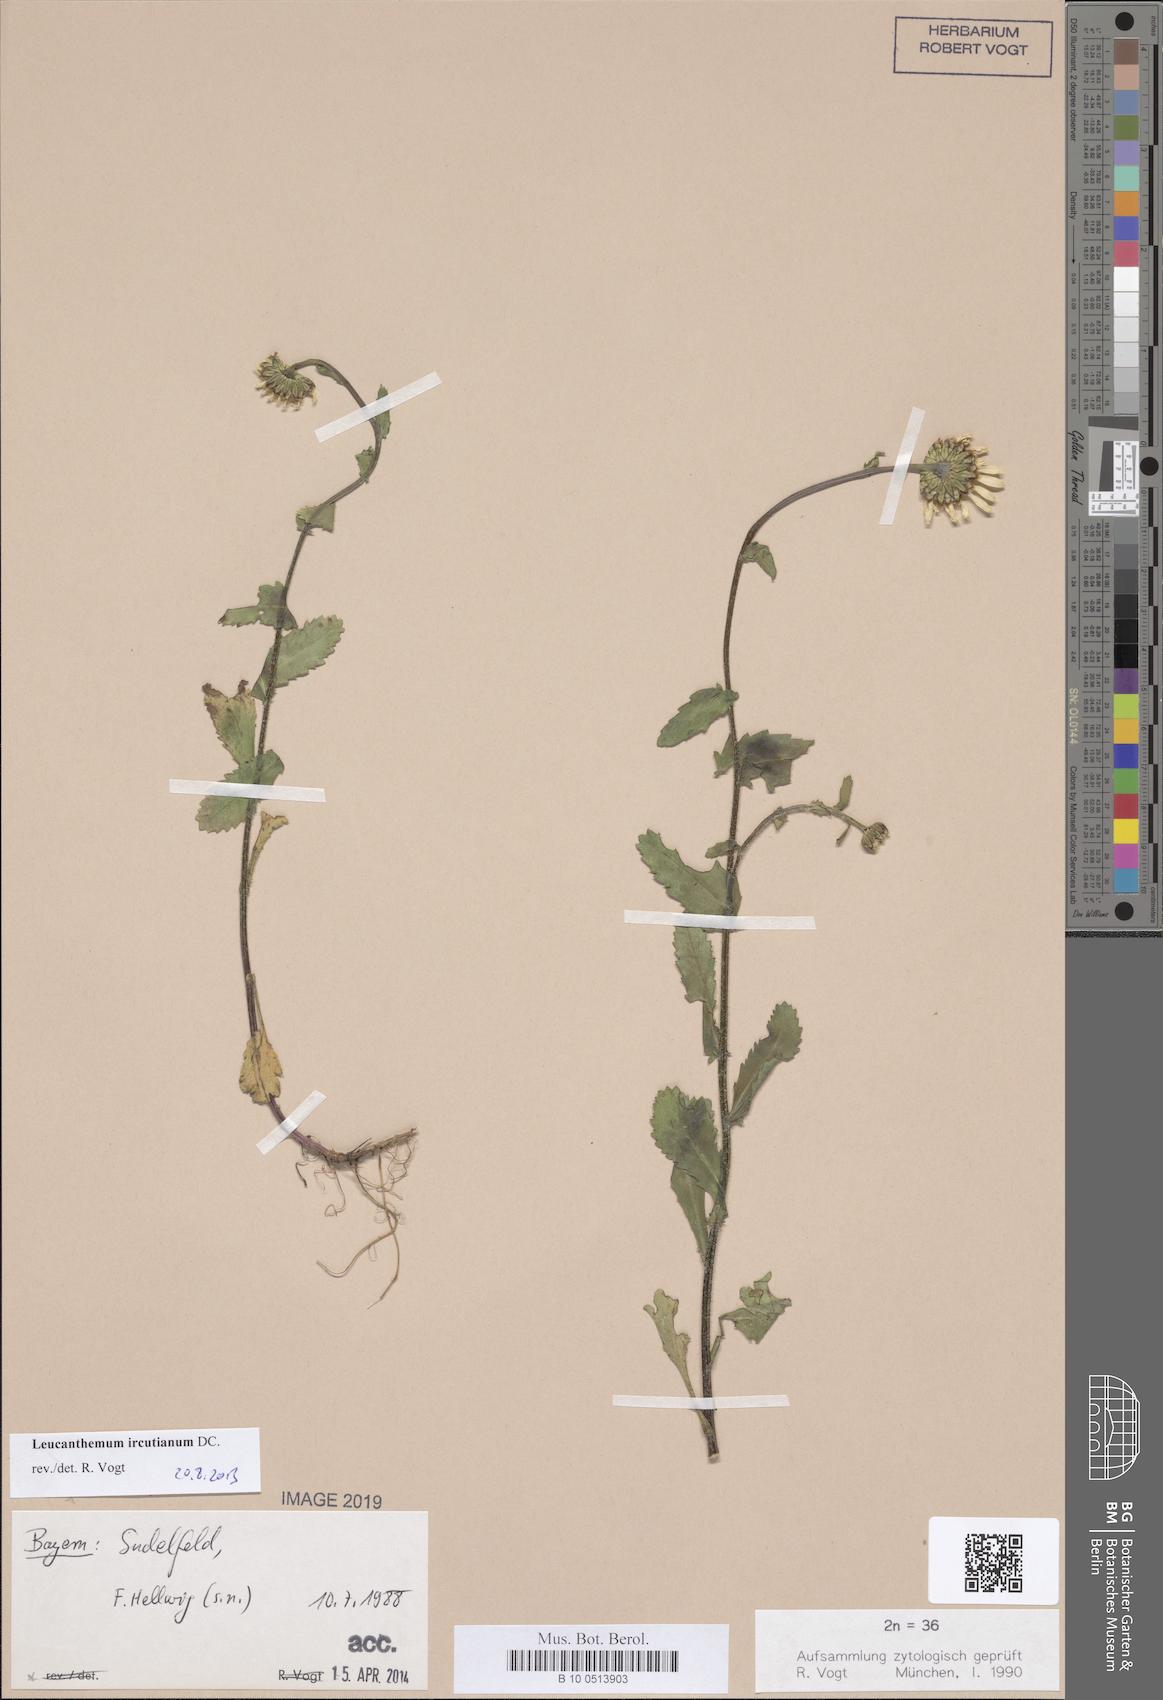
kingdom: Plantae
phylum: Tracheophyta
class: Magnoliopsida
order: Asterales
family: Asteraceae
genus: Leucanthemum
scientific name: Leucanthemum ircutianum
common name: Daisy
